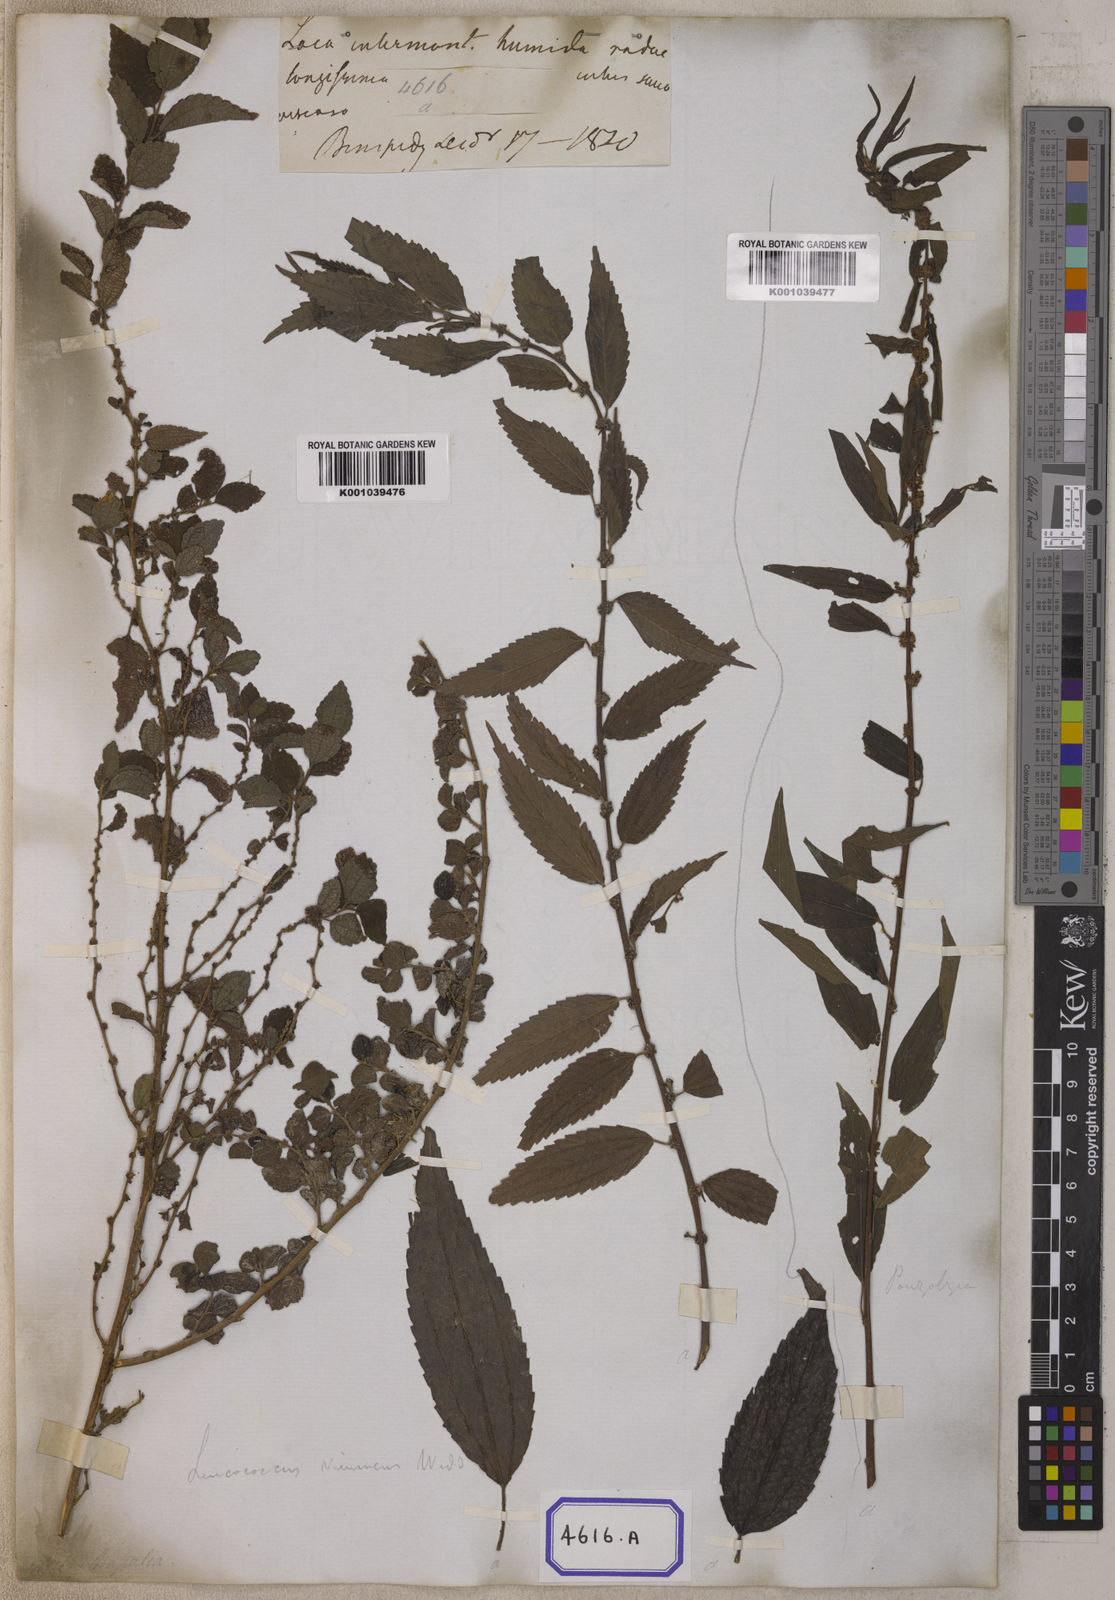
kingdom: Plantae
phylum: Tracheophyta
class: Magnoliopsida
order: Rosales
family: Urticaceae
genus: Pouzolzia
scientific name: Pouzolzia sanguinea
